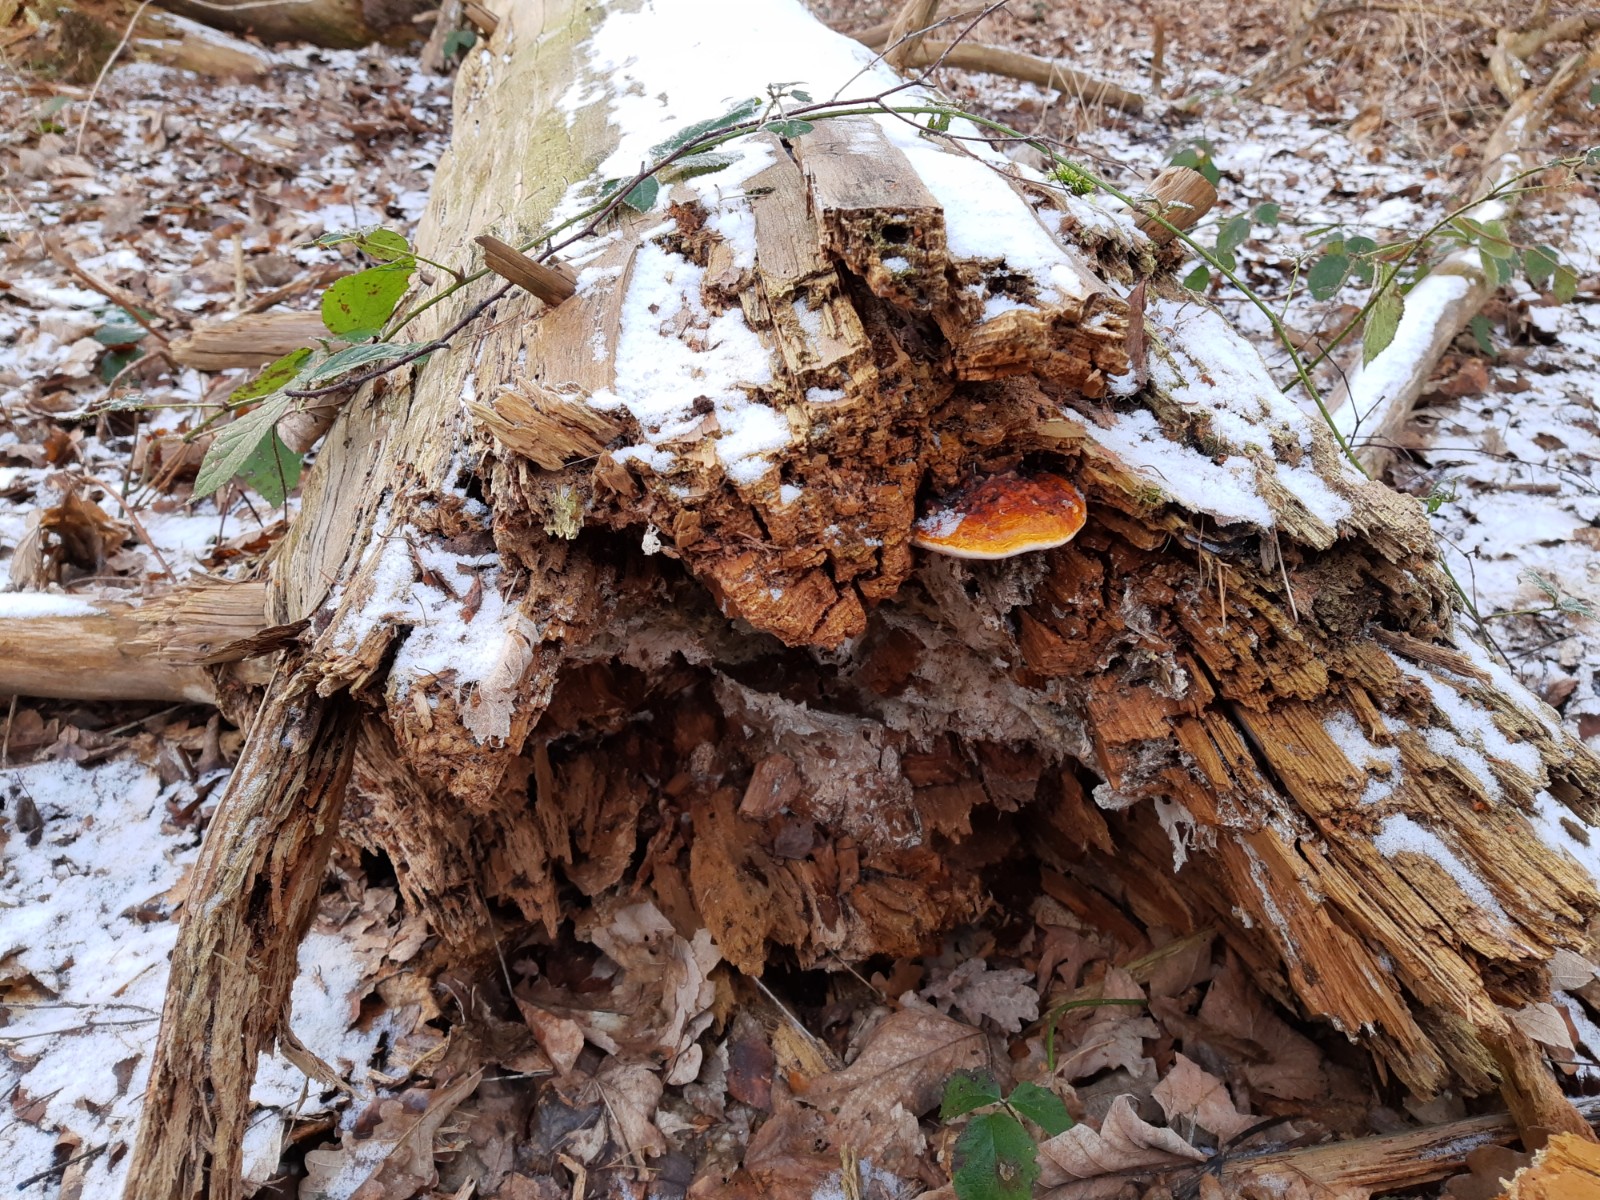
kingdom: Fungi
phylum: Basidiomycota
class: Agaricomycetes
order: Polyporales
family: Fomitopsidaceae
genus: Fomitopsis
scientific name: Fomitopsis pinicola
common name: randbæltet hovporesvamp
